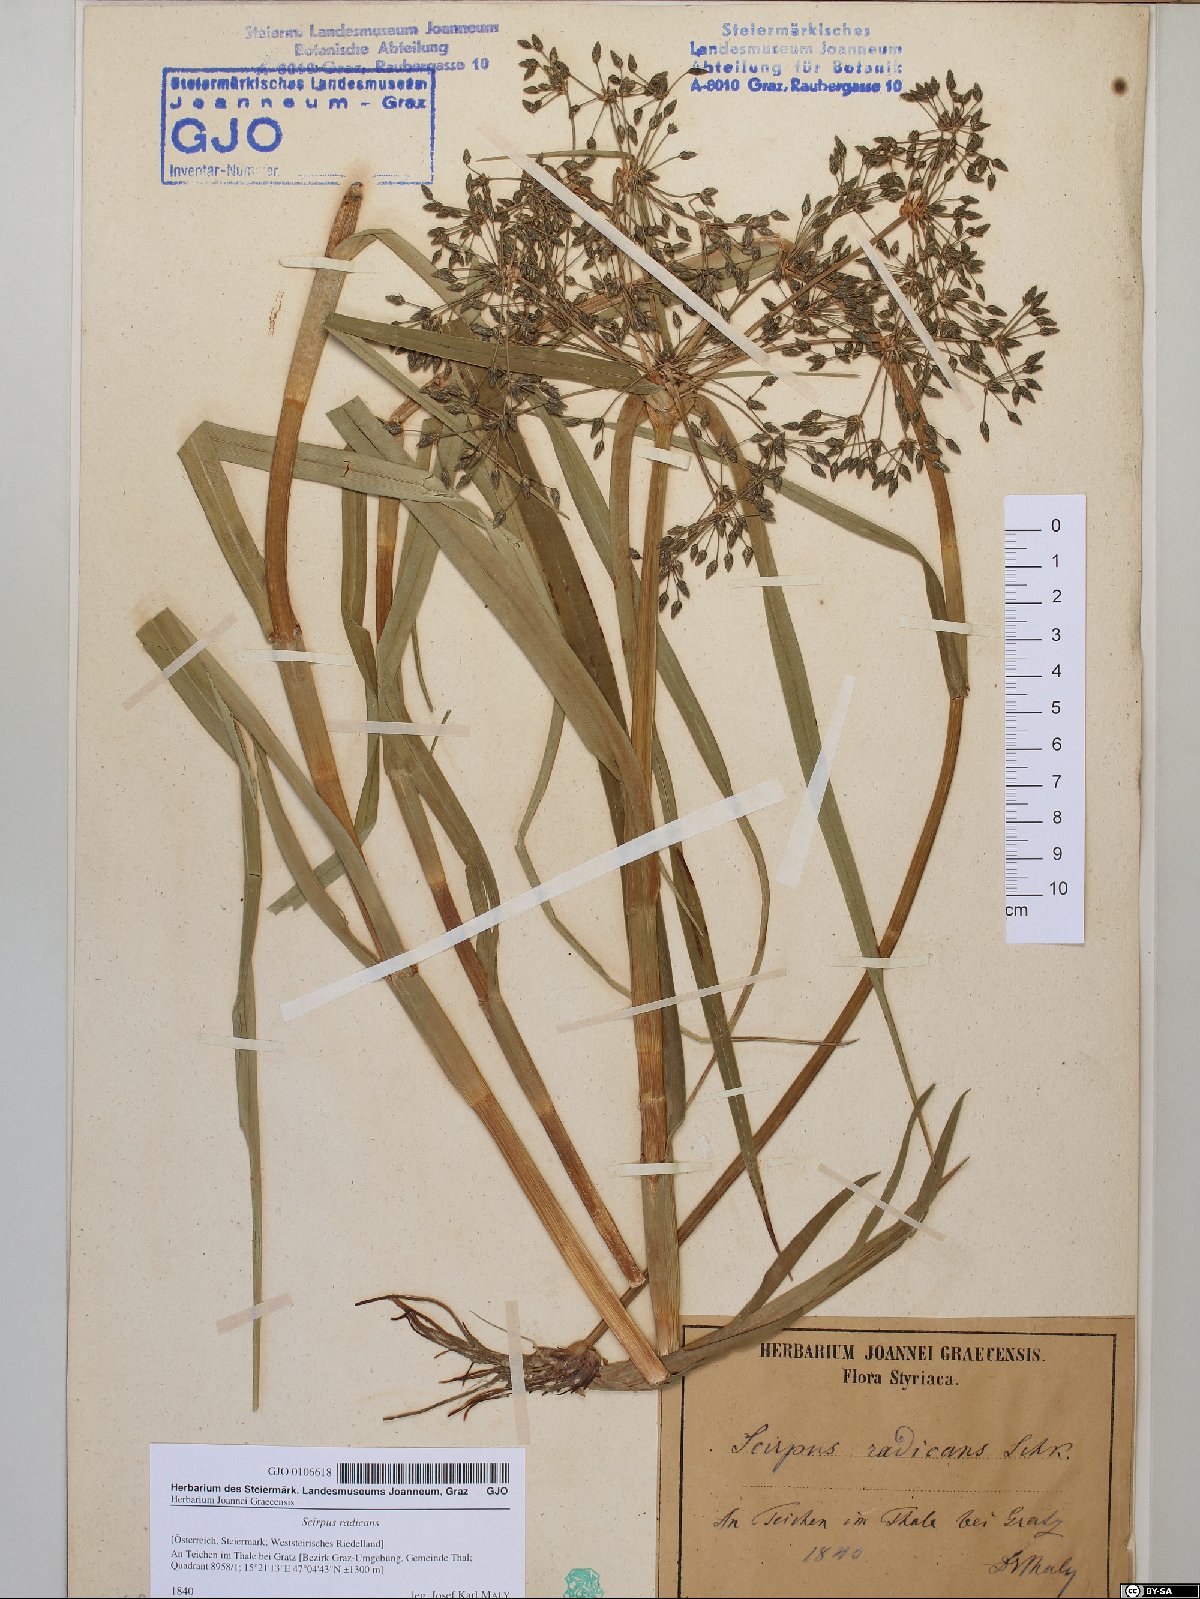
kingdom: Plantae
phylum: Tracheophyta
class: Liliopsida
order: Poales
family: Cyperaceae
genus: Scirpus
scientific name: Scirpus radicans
